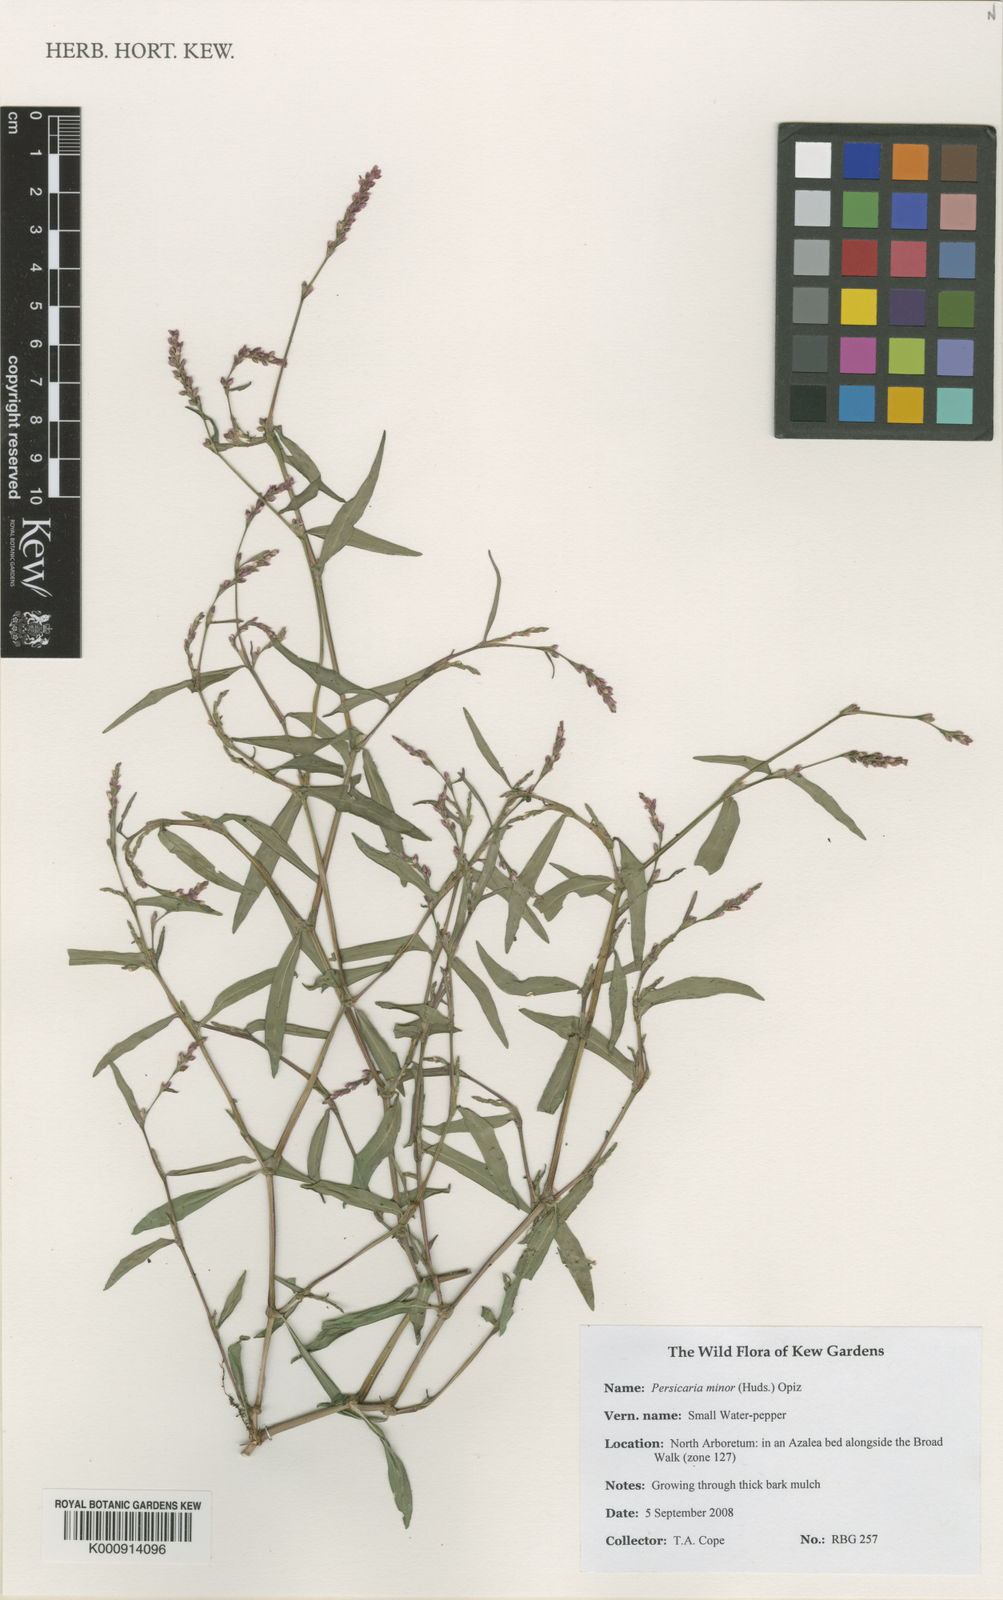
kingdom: Plantae
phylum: Tracheophyta
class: Magnoliopsida
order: Caryophyllales
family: Polygonaceae
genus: Persicaria
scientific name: Persicaria minor
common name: Small water-pepper
